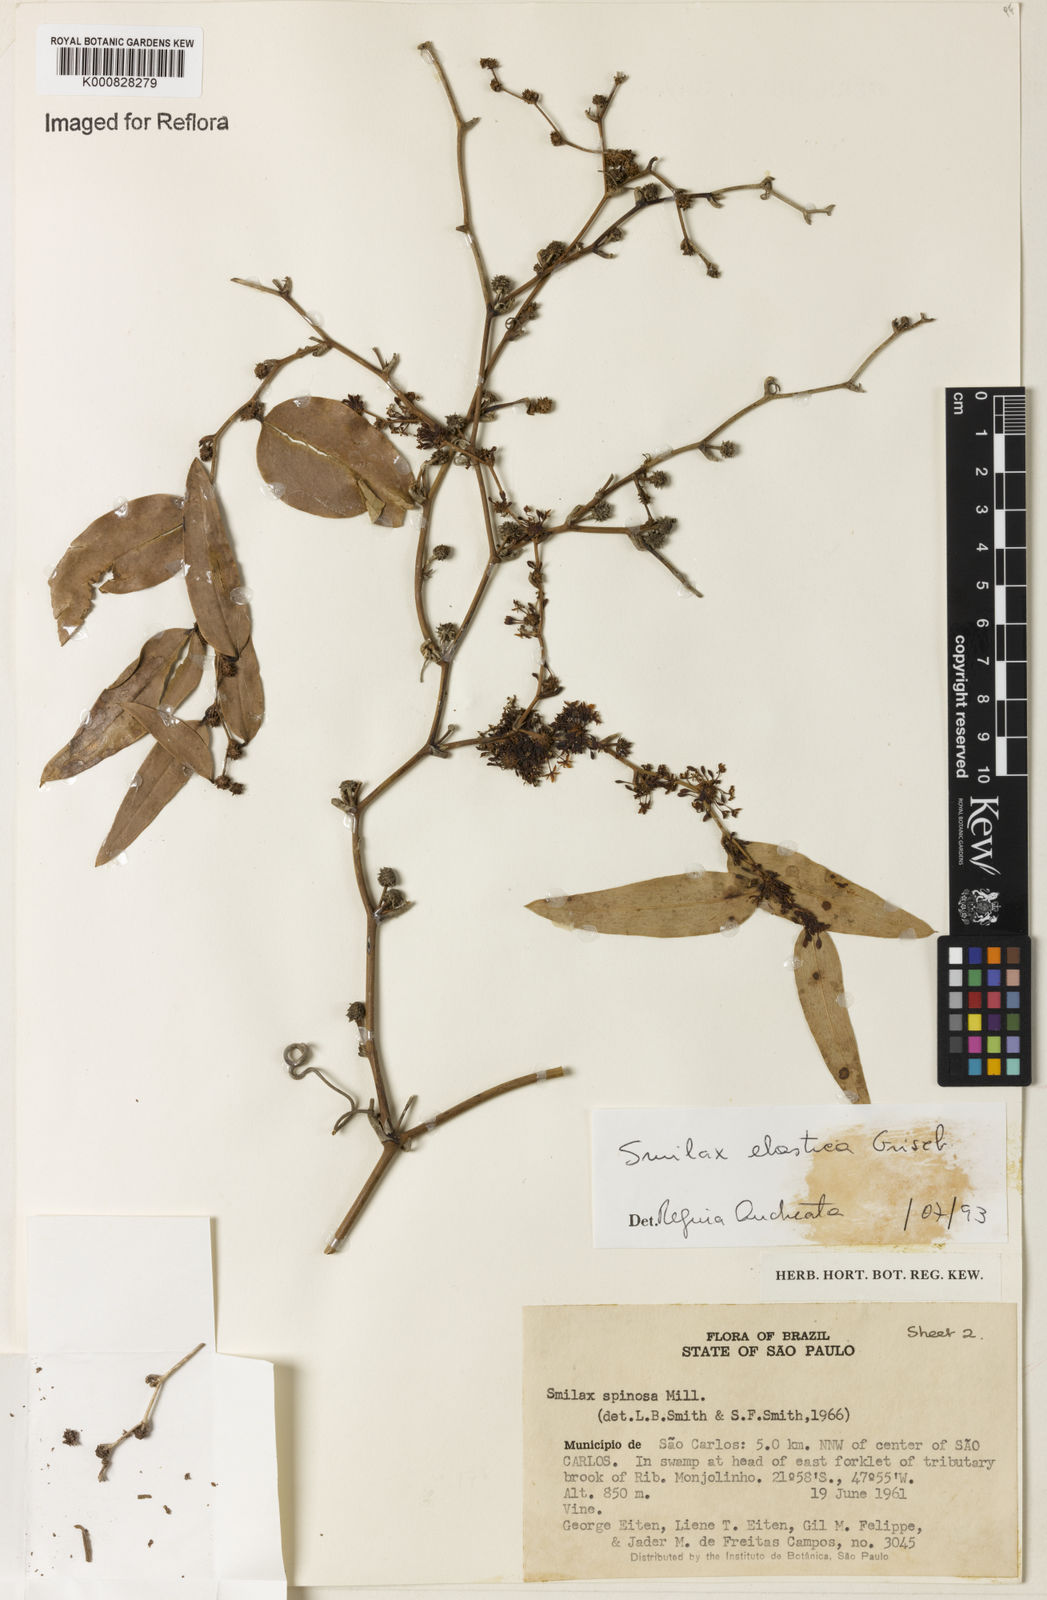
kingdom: Plantae
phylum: Tracheophyta
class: Liliopsida
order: Liliales
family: Smilacaceae
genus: Smilax
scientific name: Smilax elastica
